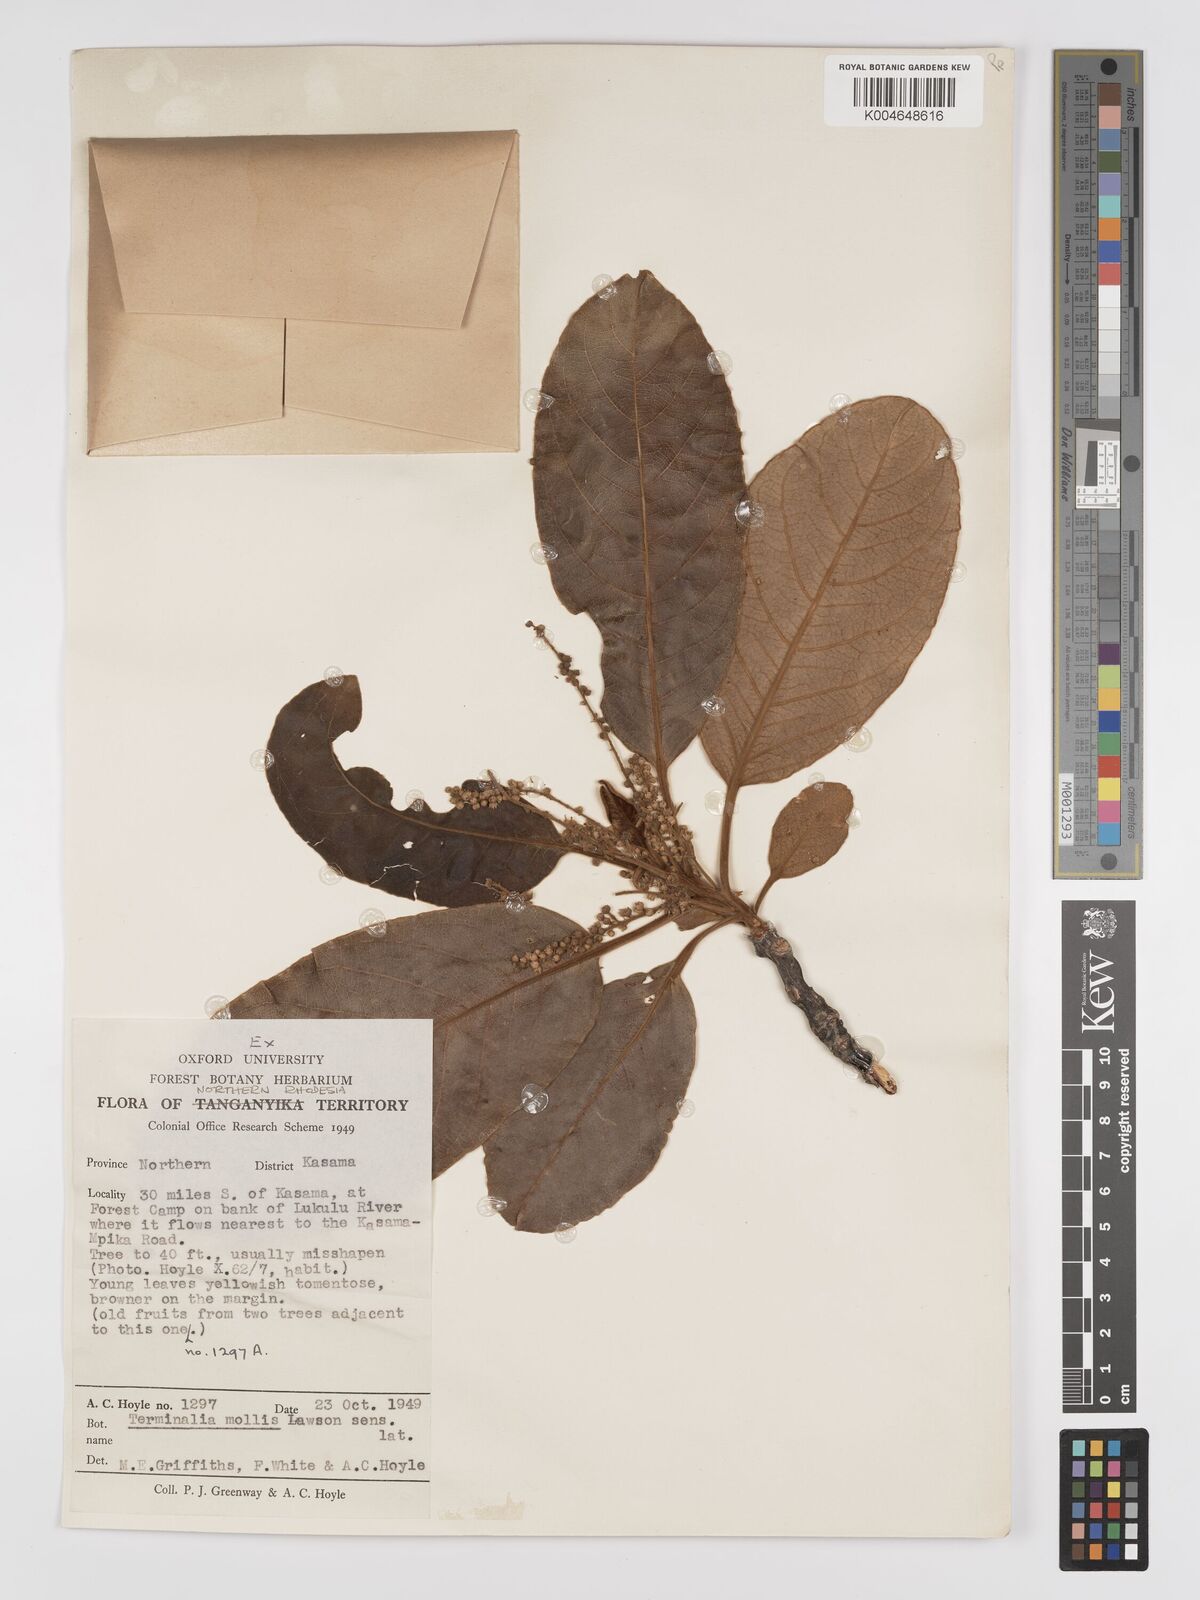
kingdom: Plantae
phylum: Tracheophyta
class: Magnoliopsida
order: Myrtales
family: Combretaceae
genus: Terminalia
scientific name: Terminalia
